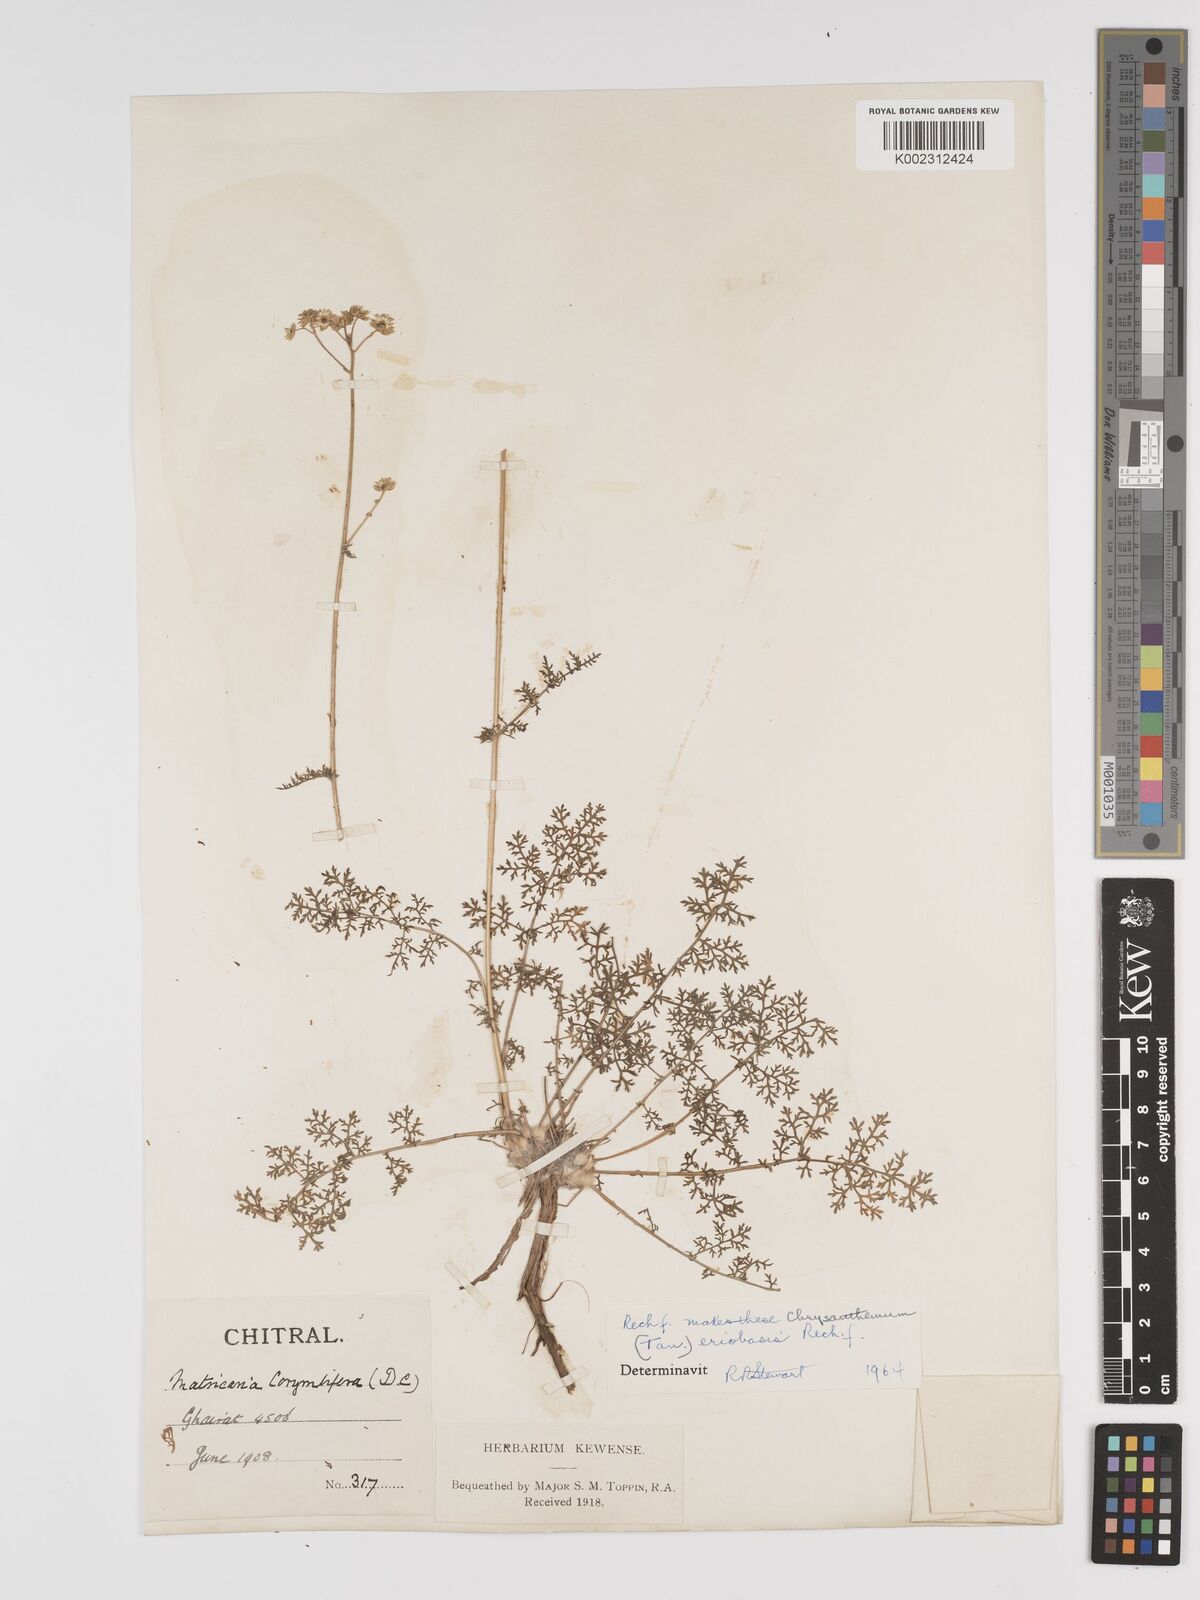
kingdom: Plantae
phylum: Tracheophyta
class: Magnoliopsida
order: Asterales
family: Asteraceae
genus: Tanacetum
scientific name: Tanacetum
